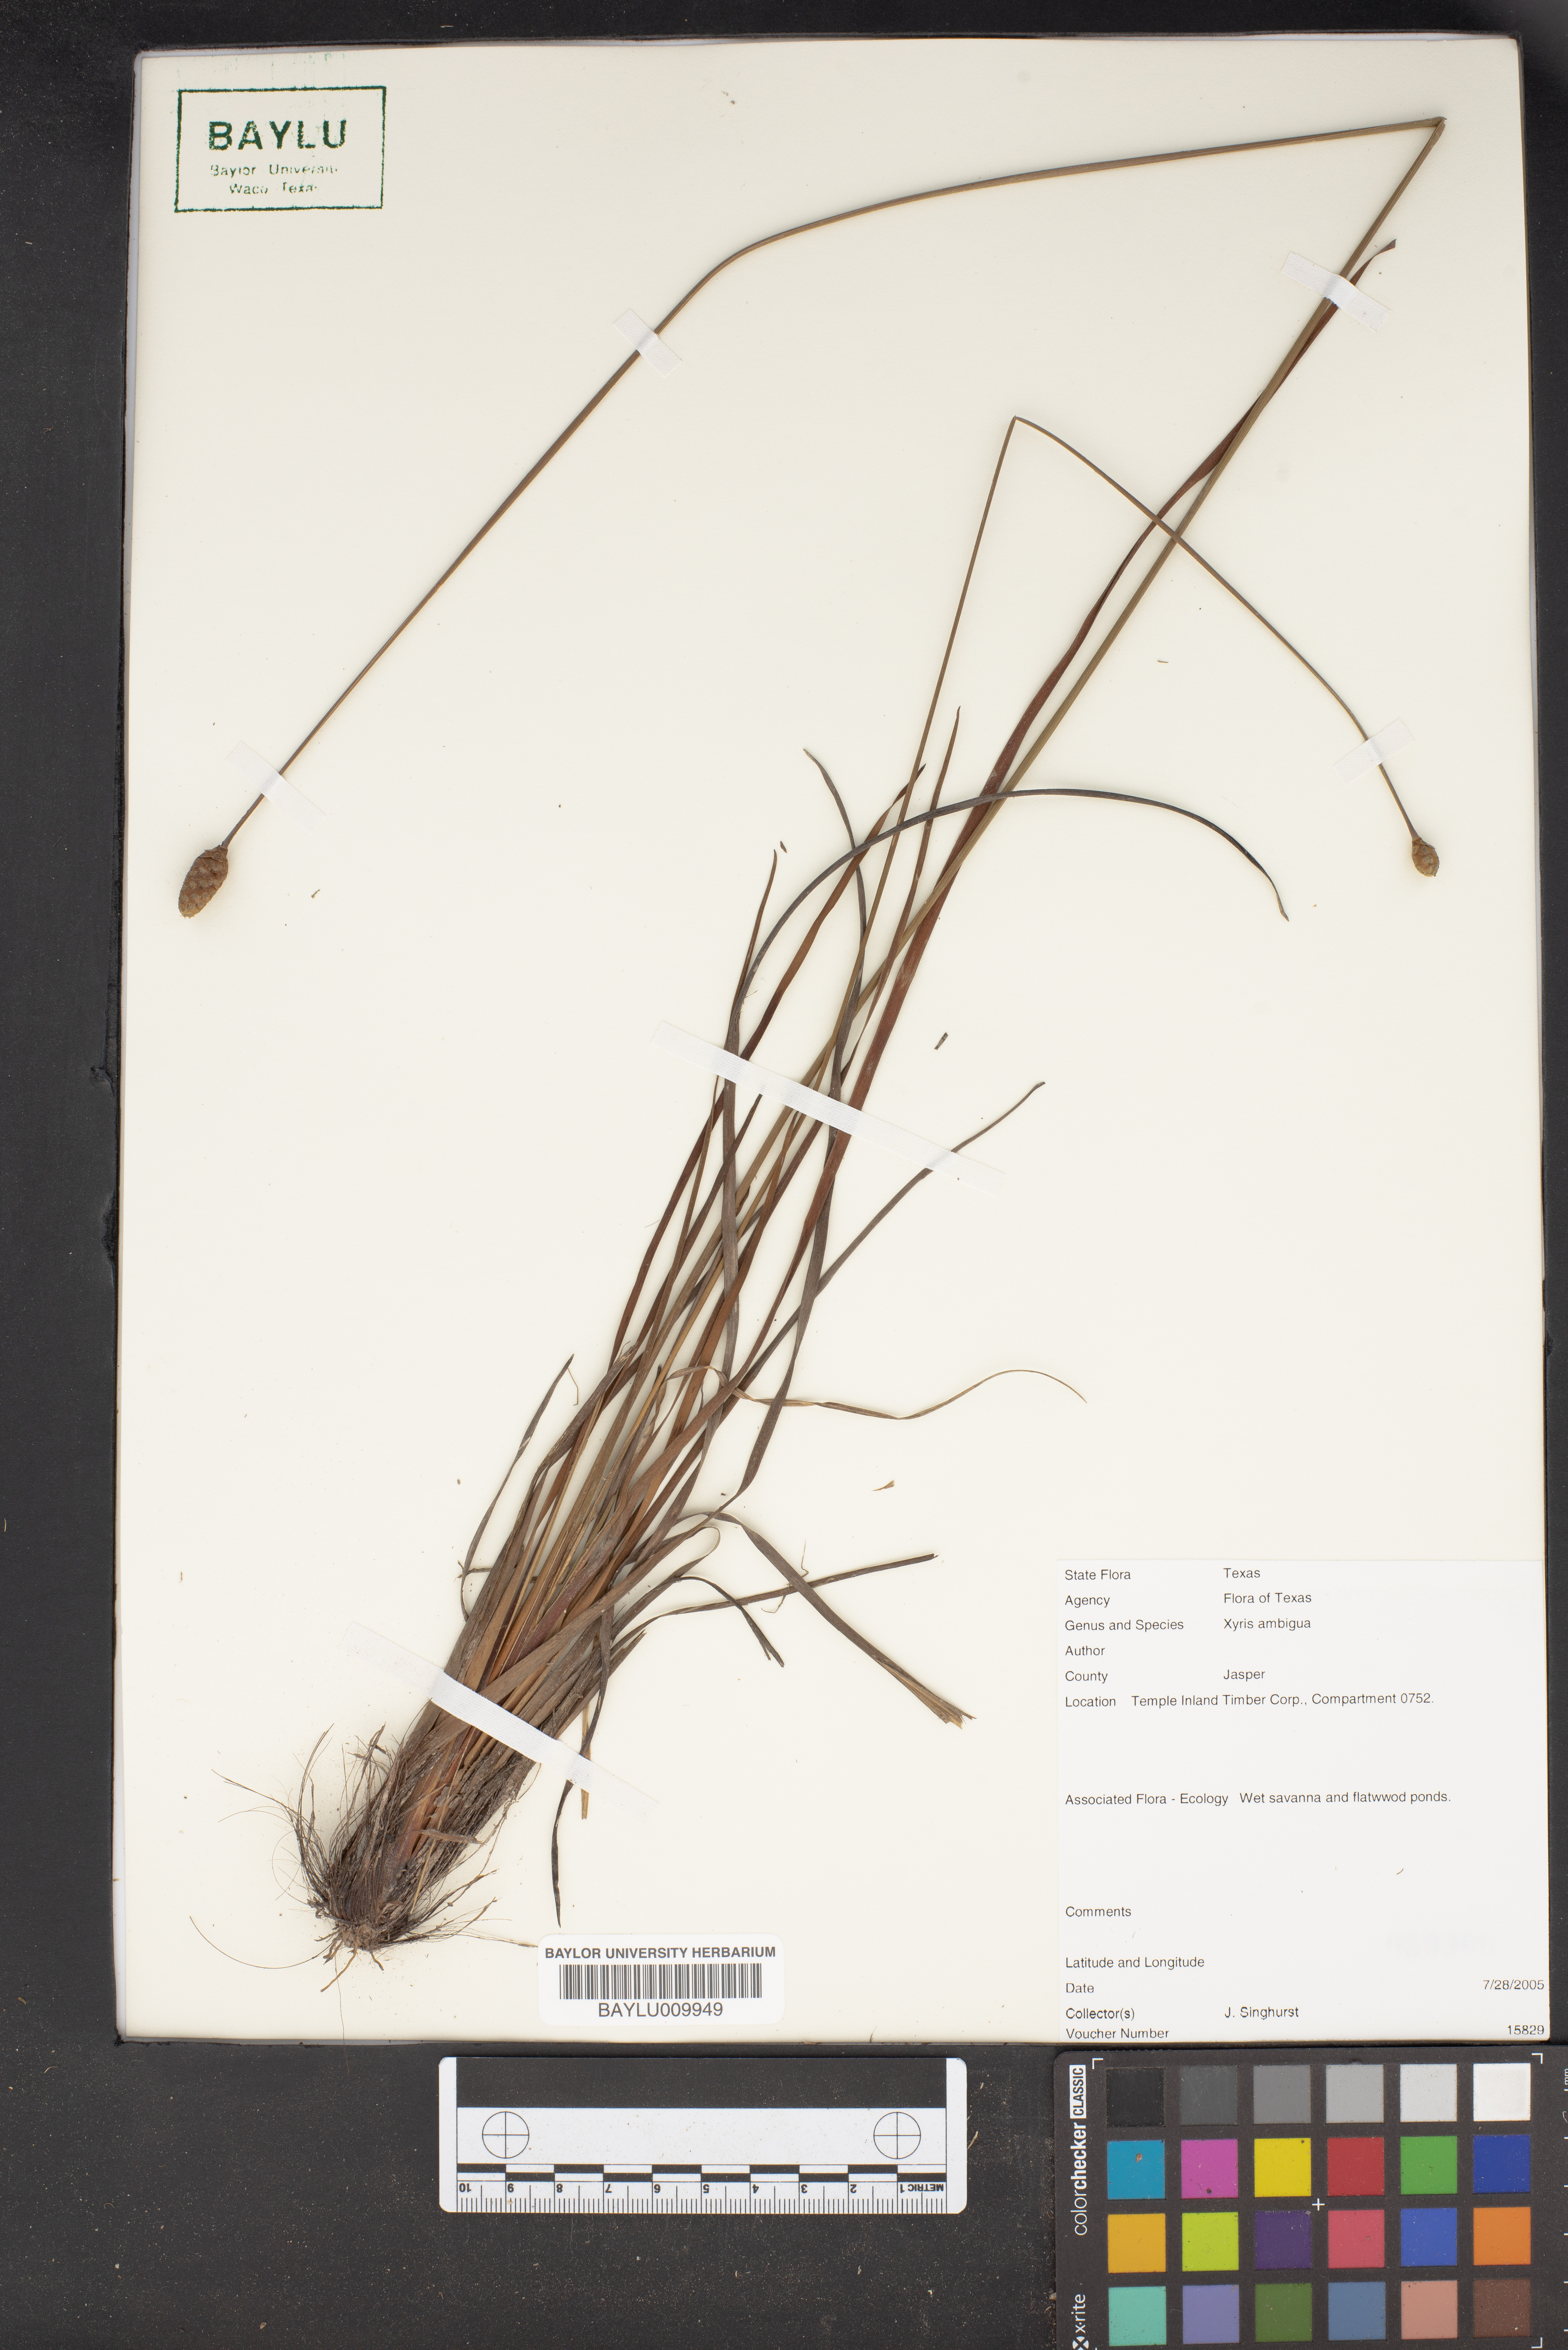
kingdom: Plantae
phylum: Tracheophyta
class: Liliopsida
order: Poales
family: Xyridaceae
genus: Xyris
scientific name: Xyris ambigua
